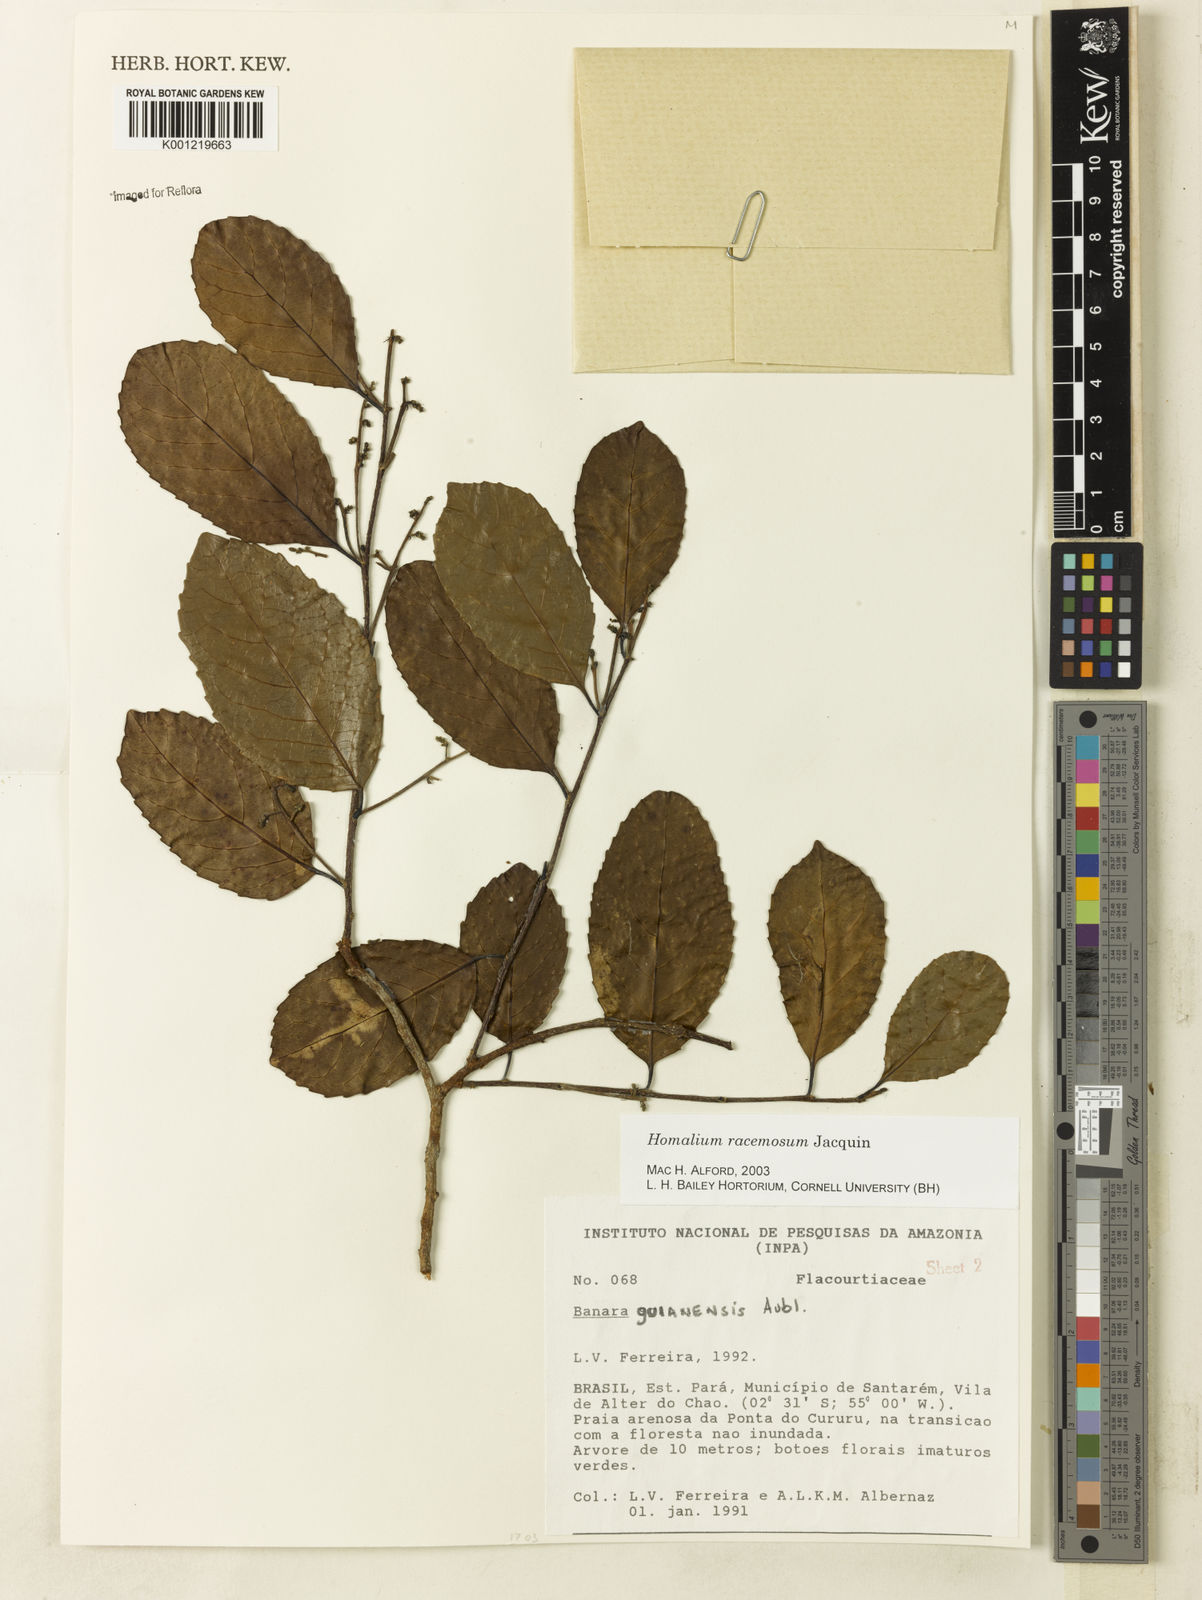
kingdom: Plantae
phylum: Tracheophyta
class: Magnoliopsida
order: Malpighiales
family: Salicaceae
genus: Homalium
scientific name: Homalium racemosum
